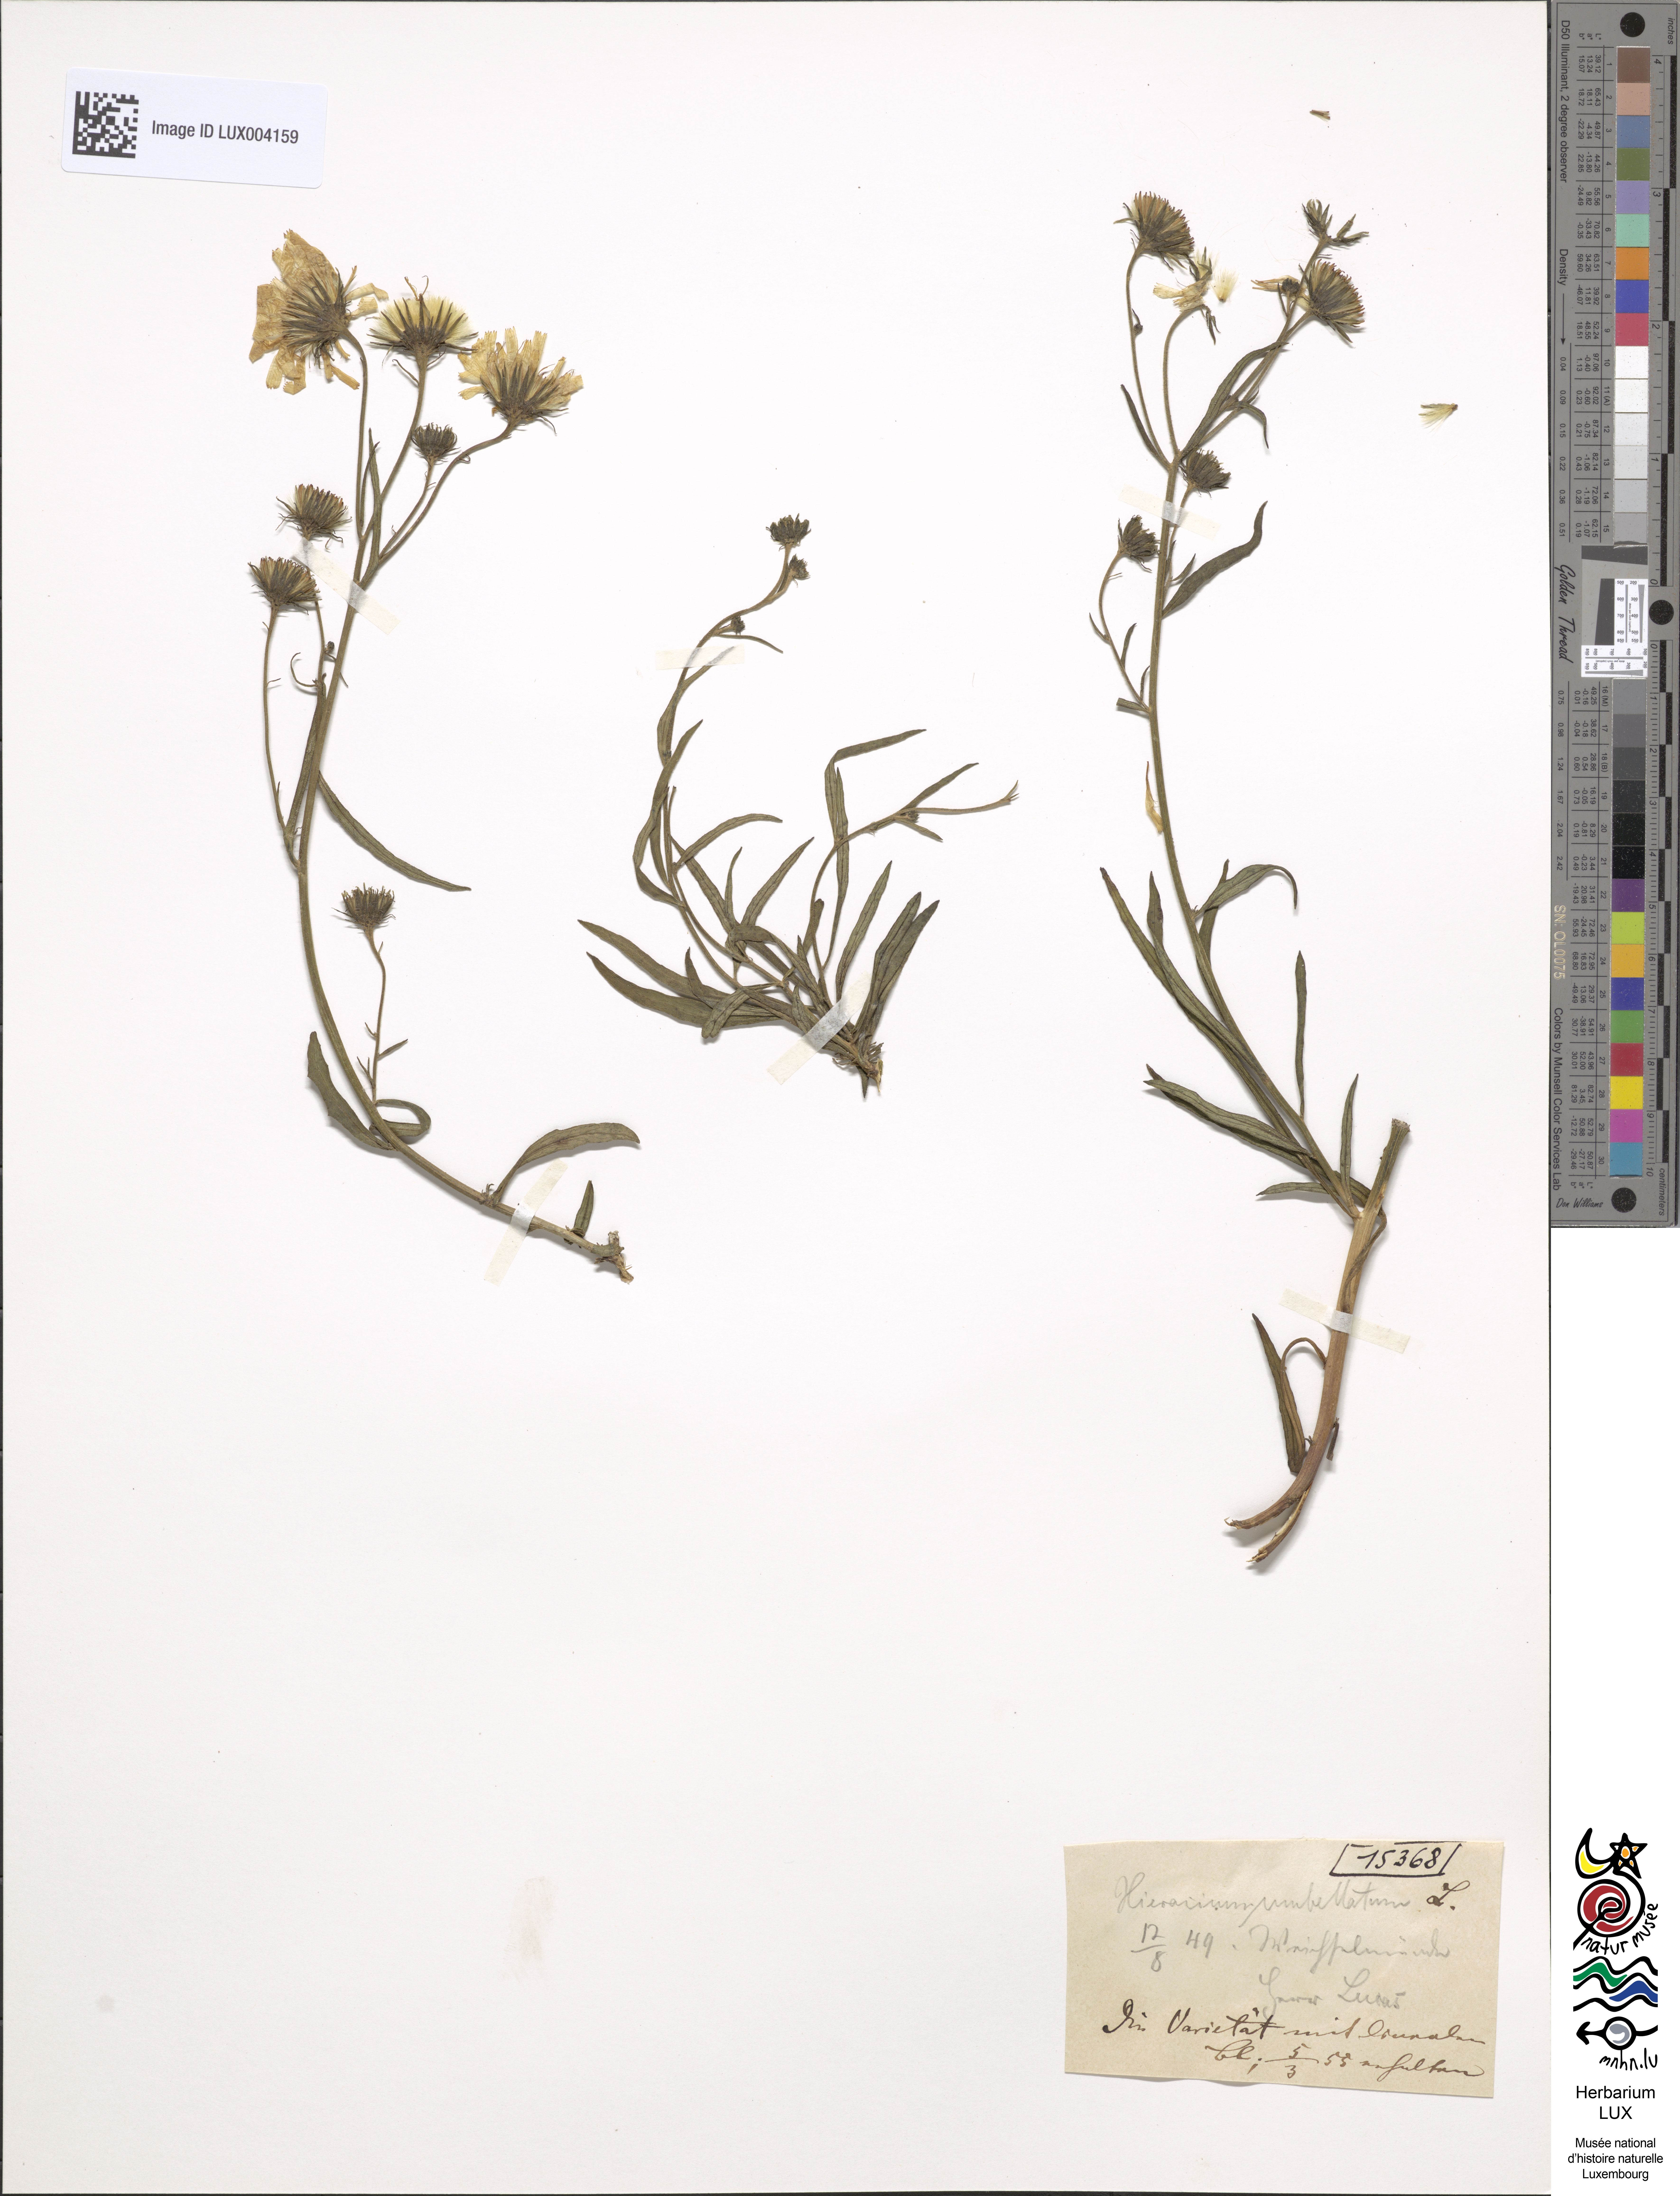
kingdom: Plantae
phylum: Tracheophyta
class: Magnoliopsida
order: Asterales
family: Asteraceae
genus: Hieracium
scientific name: Hieracium umbellatum
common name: Northern hawkweed
